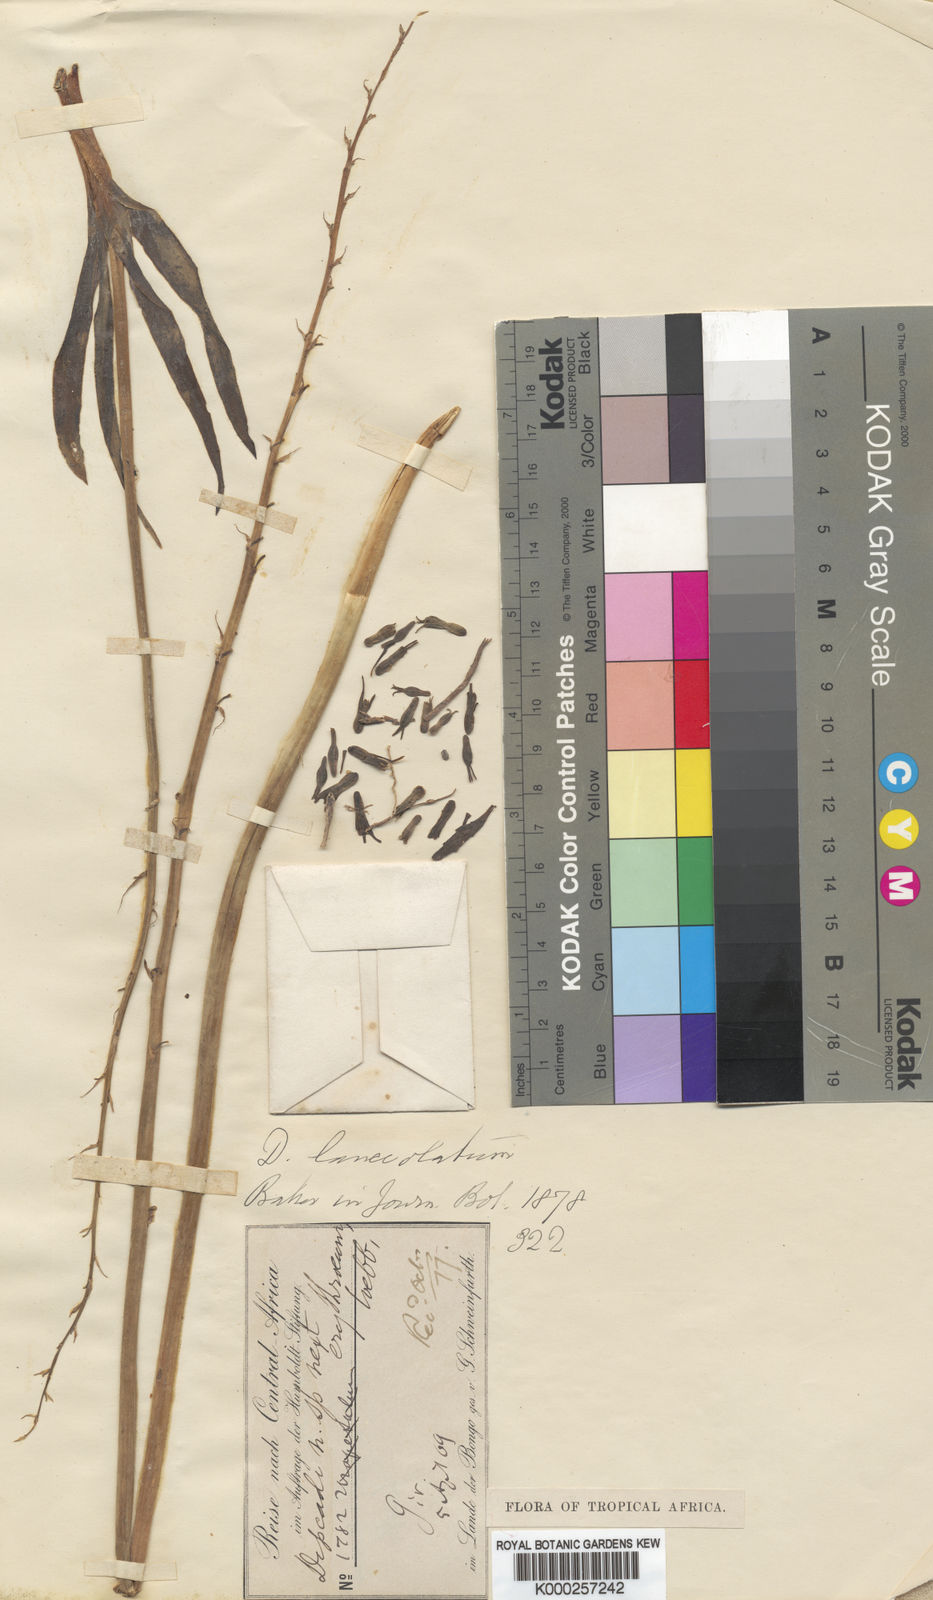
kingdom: Plantae
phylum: Tracheophyta
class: Liliopsida
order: Asparagales
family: Asparagaceae
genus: Dipcadi
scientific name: Dipcadi viride
